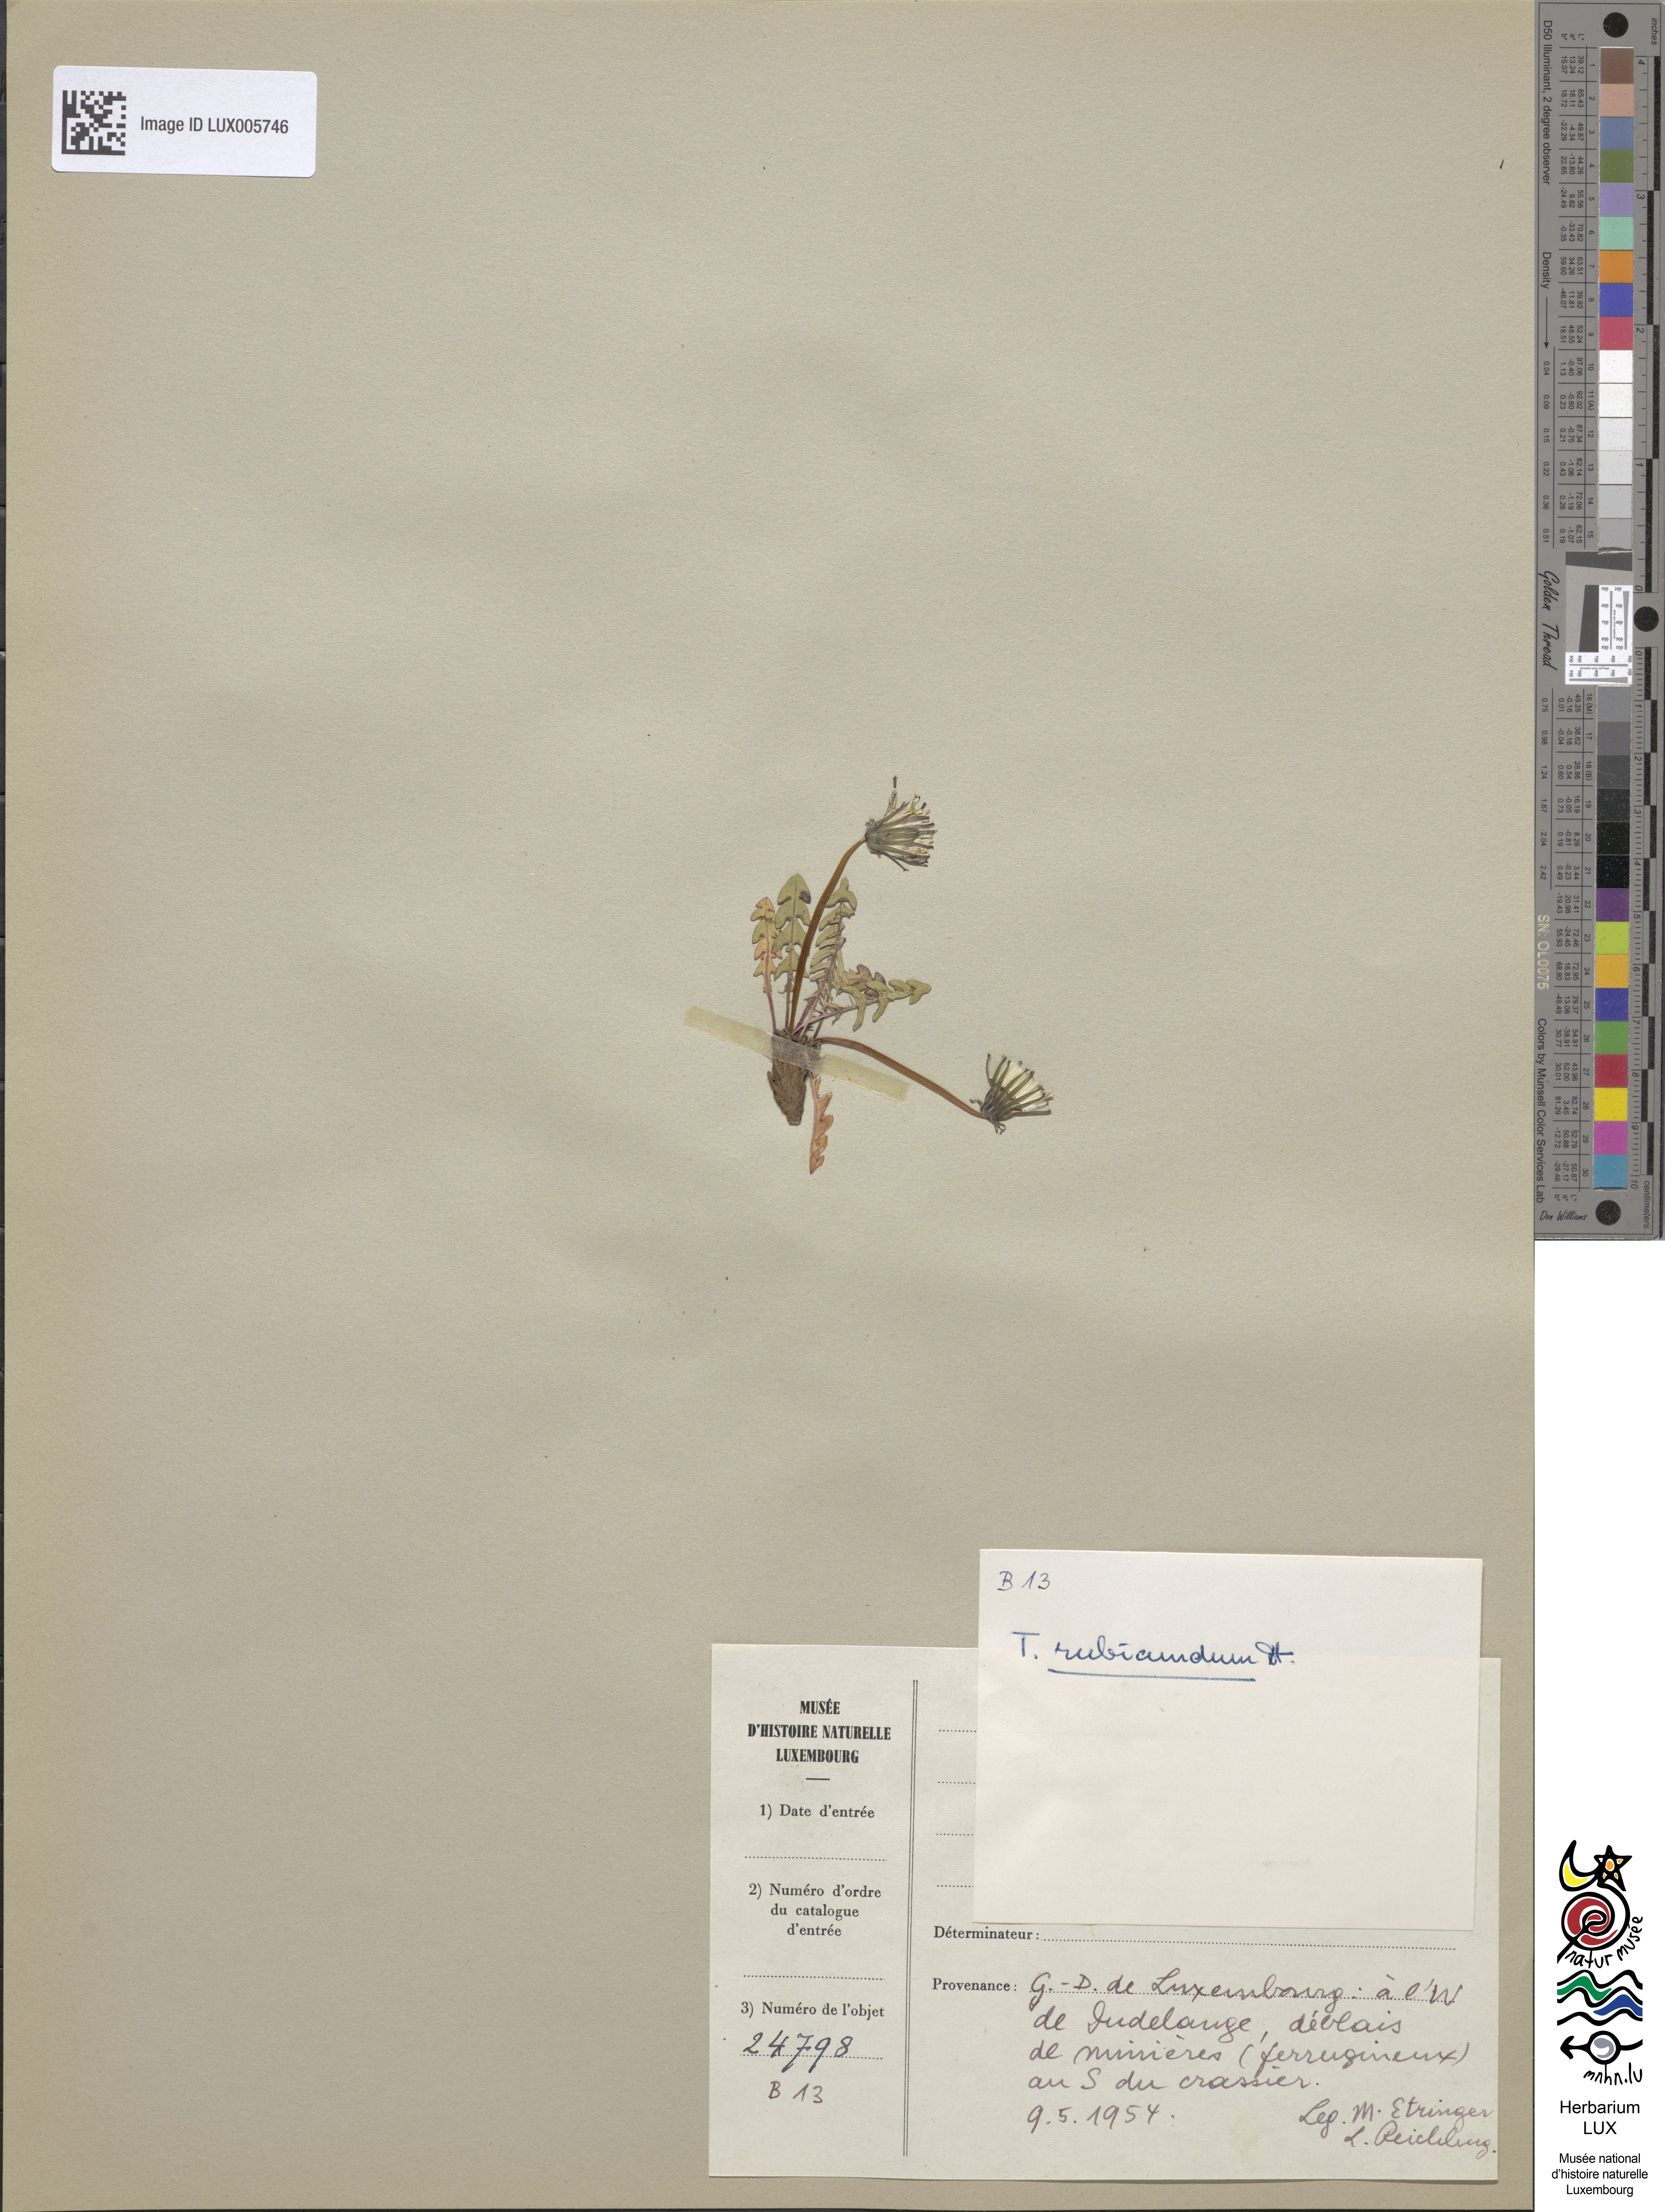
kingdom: Plantae
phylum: Tracheophyta
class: Magnoliopsida
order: Asterales
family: Asteraceae
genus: Taraxacum
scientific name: Taraxacum rubicundum
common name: Ruddy dandelion
